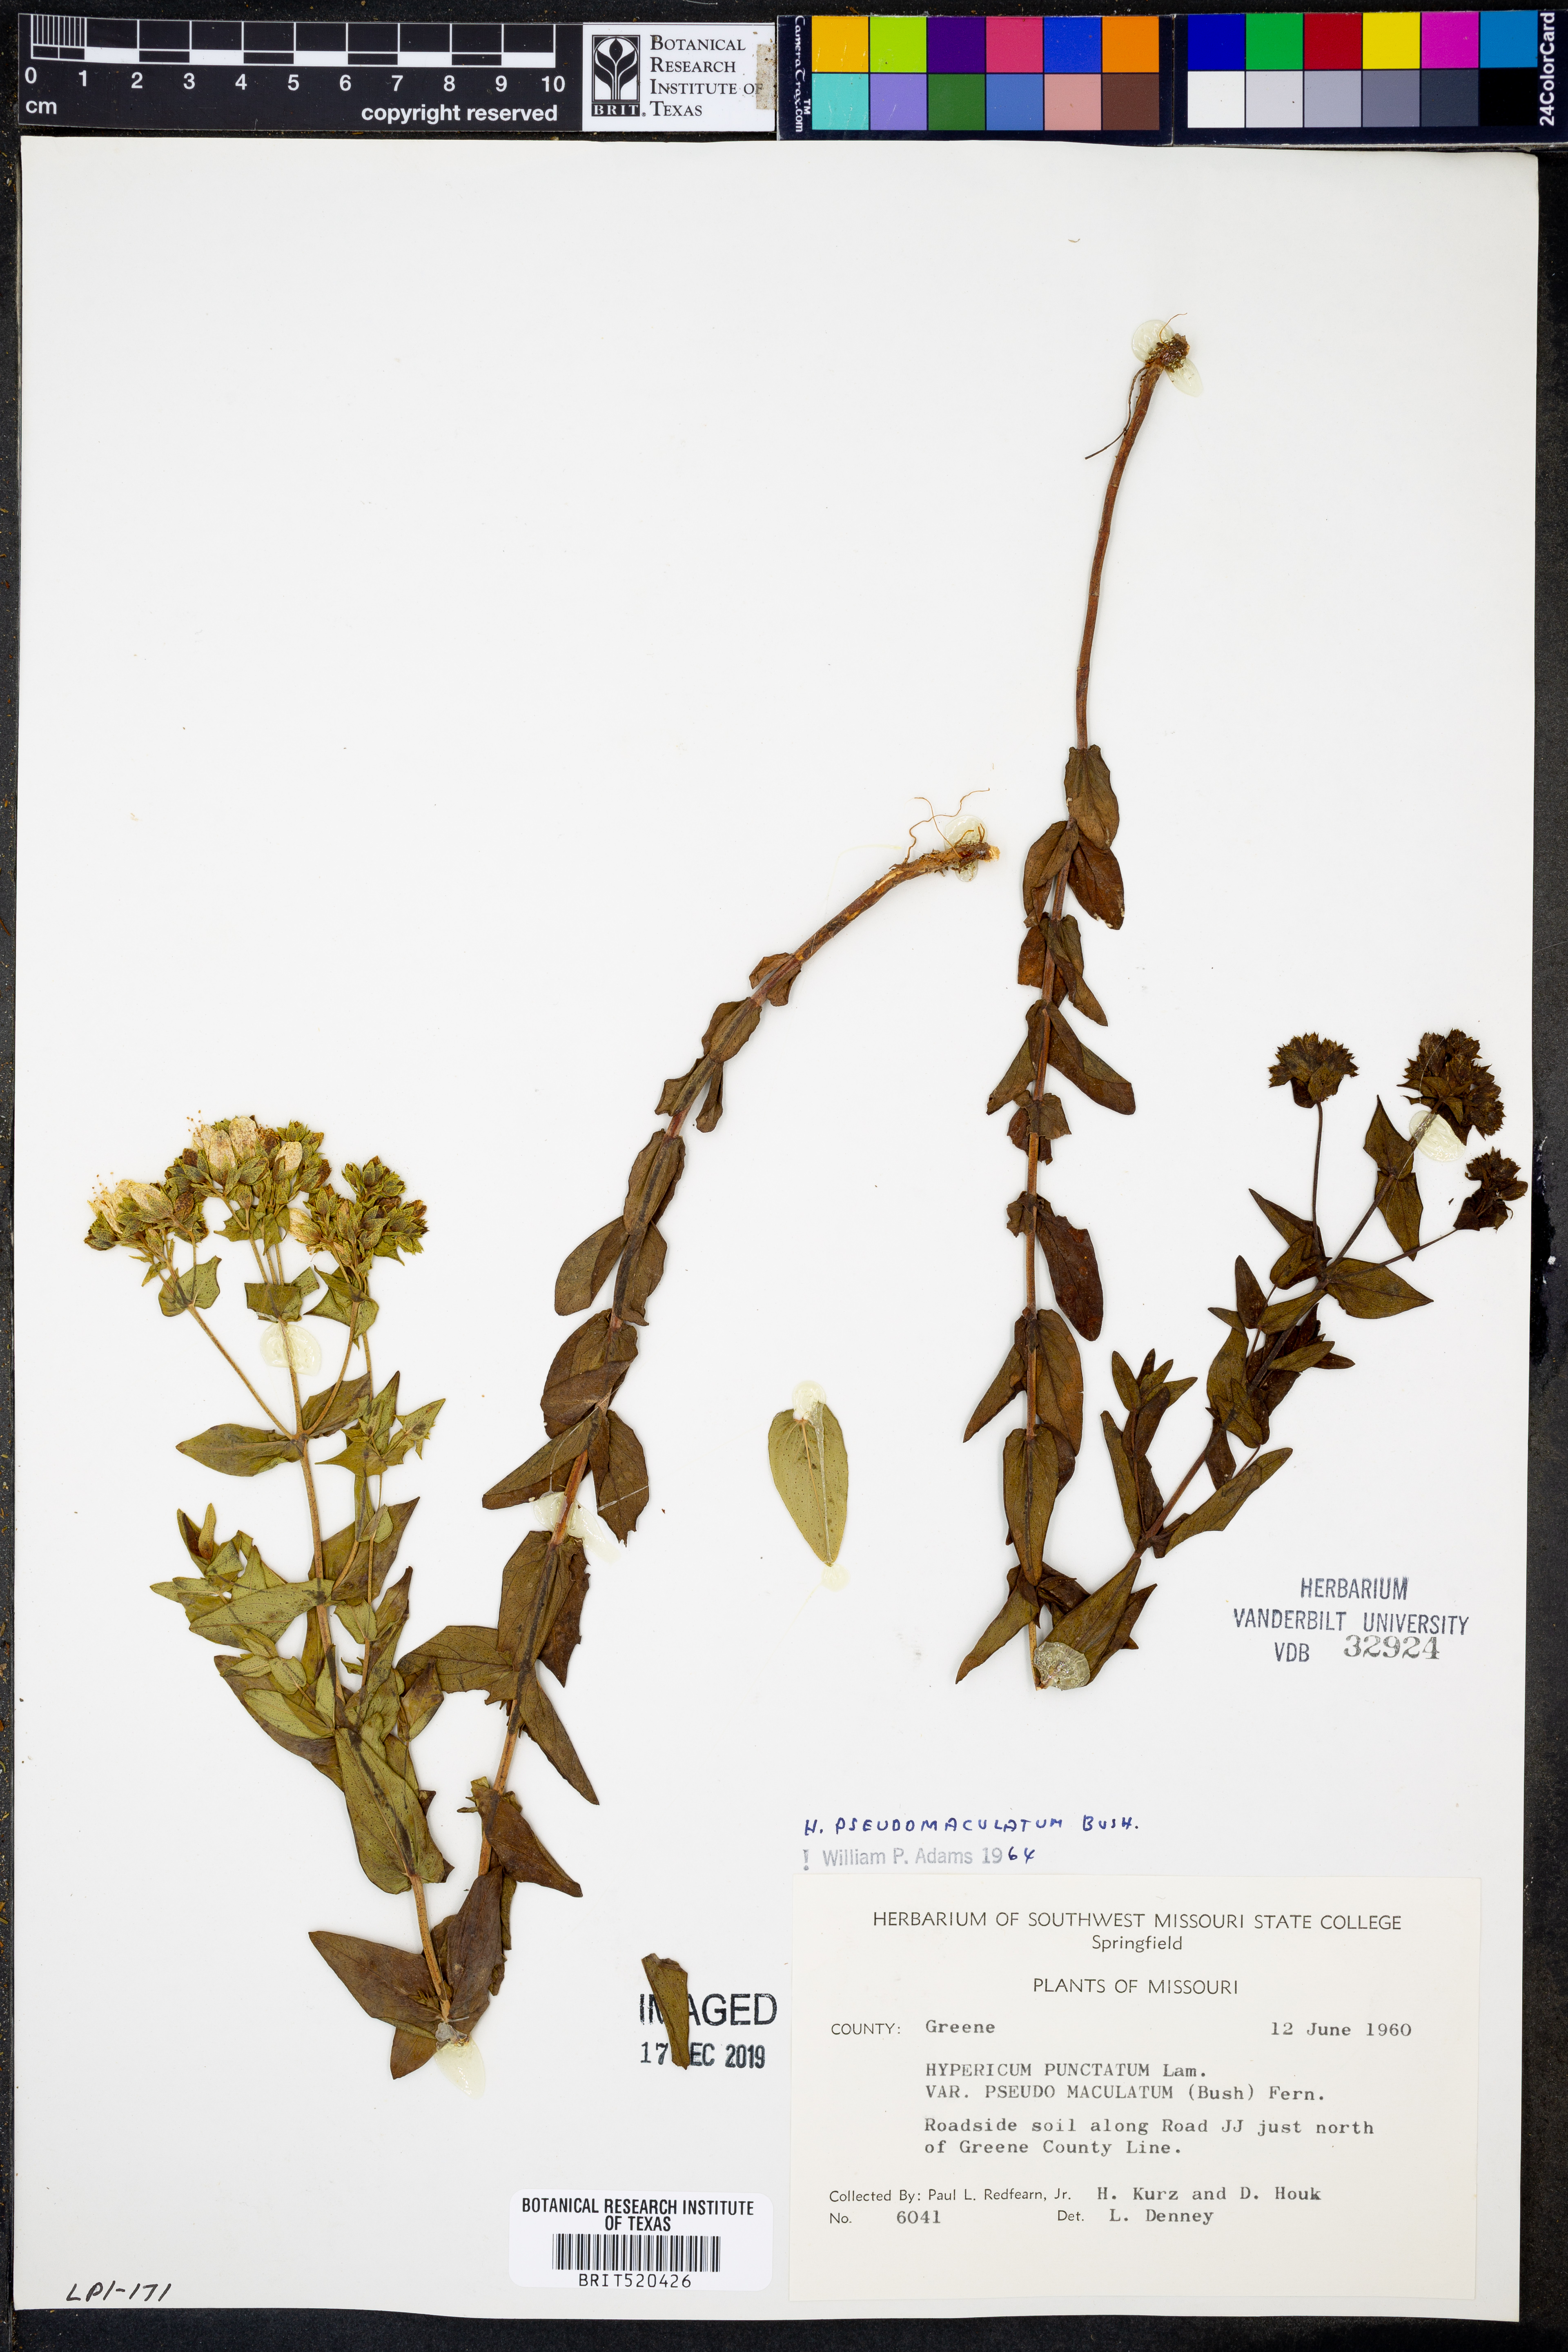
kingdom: Plantae
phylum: Tracheophyta
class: Magnoliopsida
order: Malpighiales
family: Hypericaceae
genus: Hypericum
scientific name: Hypericum pseudomaculatum
